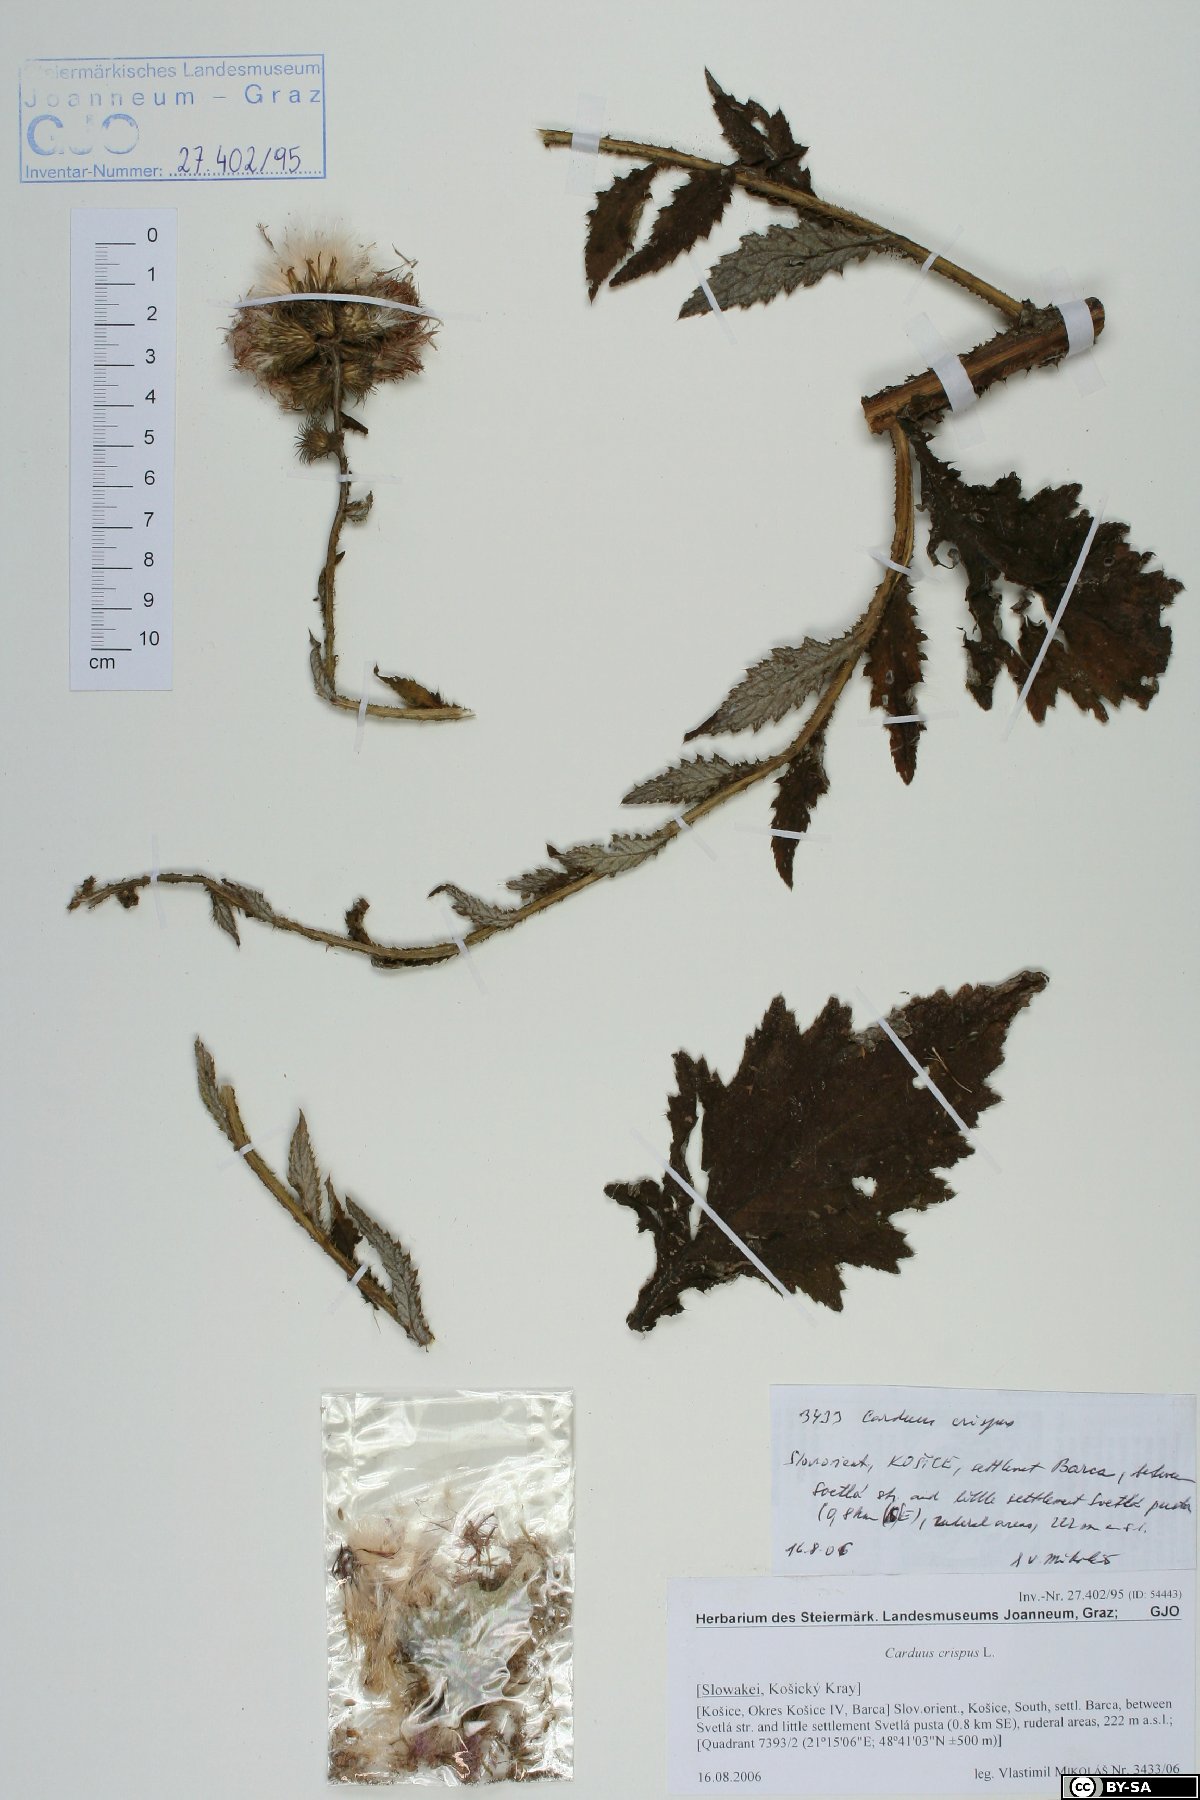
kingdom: Plantae
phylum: Tracheophyta
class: Magnoliopsida
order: Asterales
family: Asteraceae
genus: Carduus
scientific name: Carduus crispus
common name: Welted thistle
